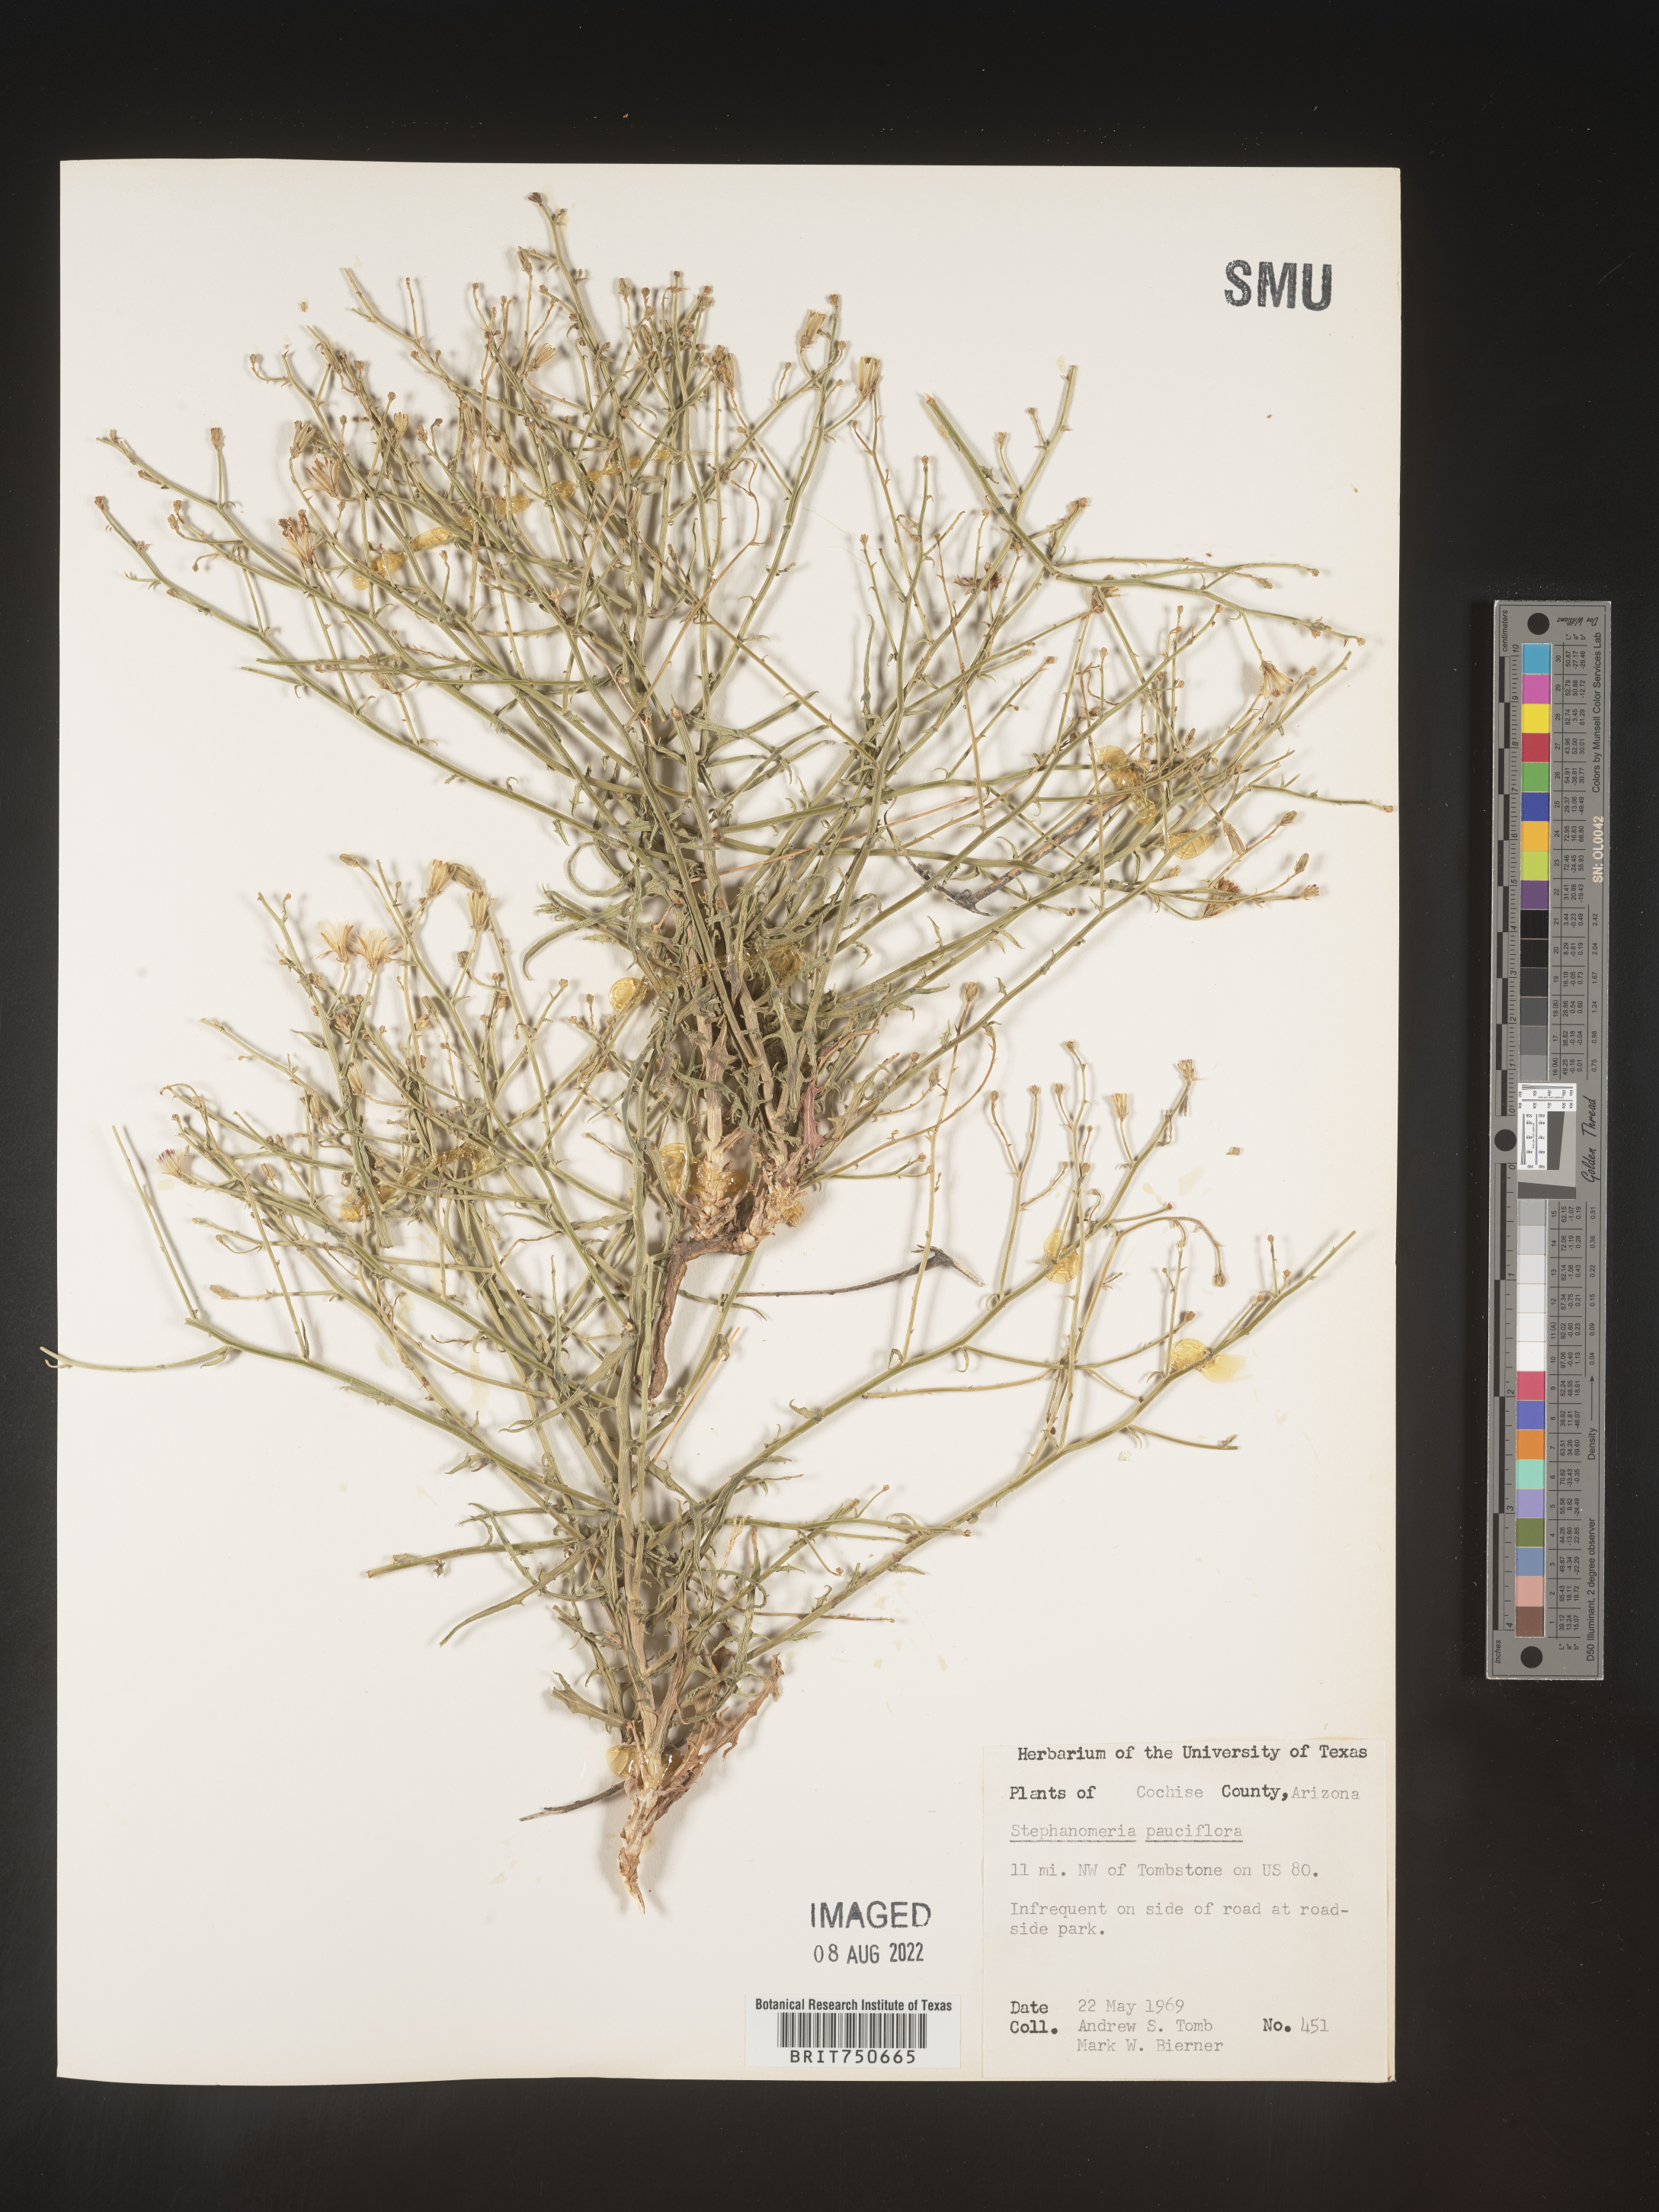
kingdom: Plantae
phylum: Tracheophyta
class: Magnoliopsida
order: Asterales
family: Asteraceae
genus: Stephanomeria
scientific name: Stephanomeria pauciflora
